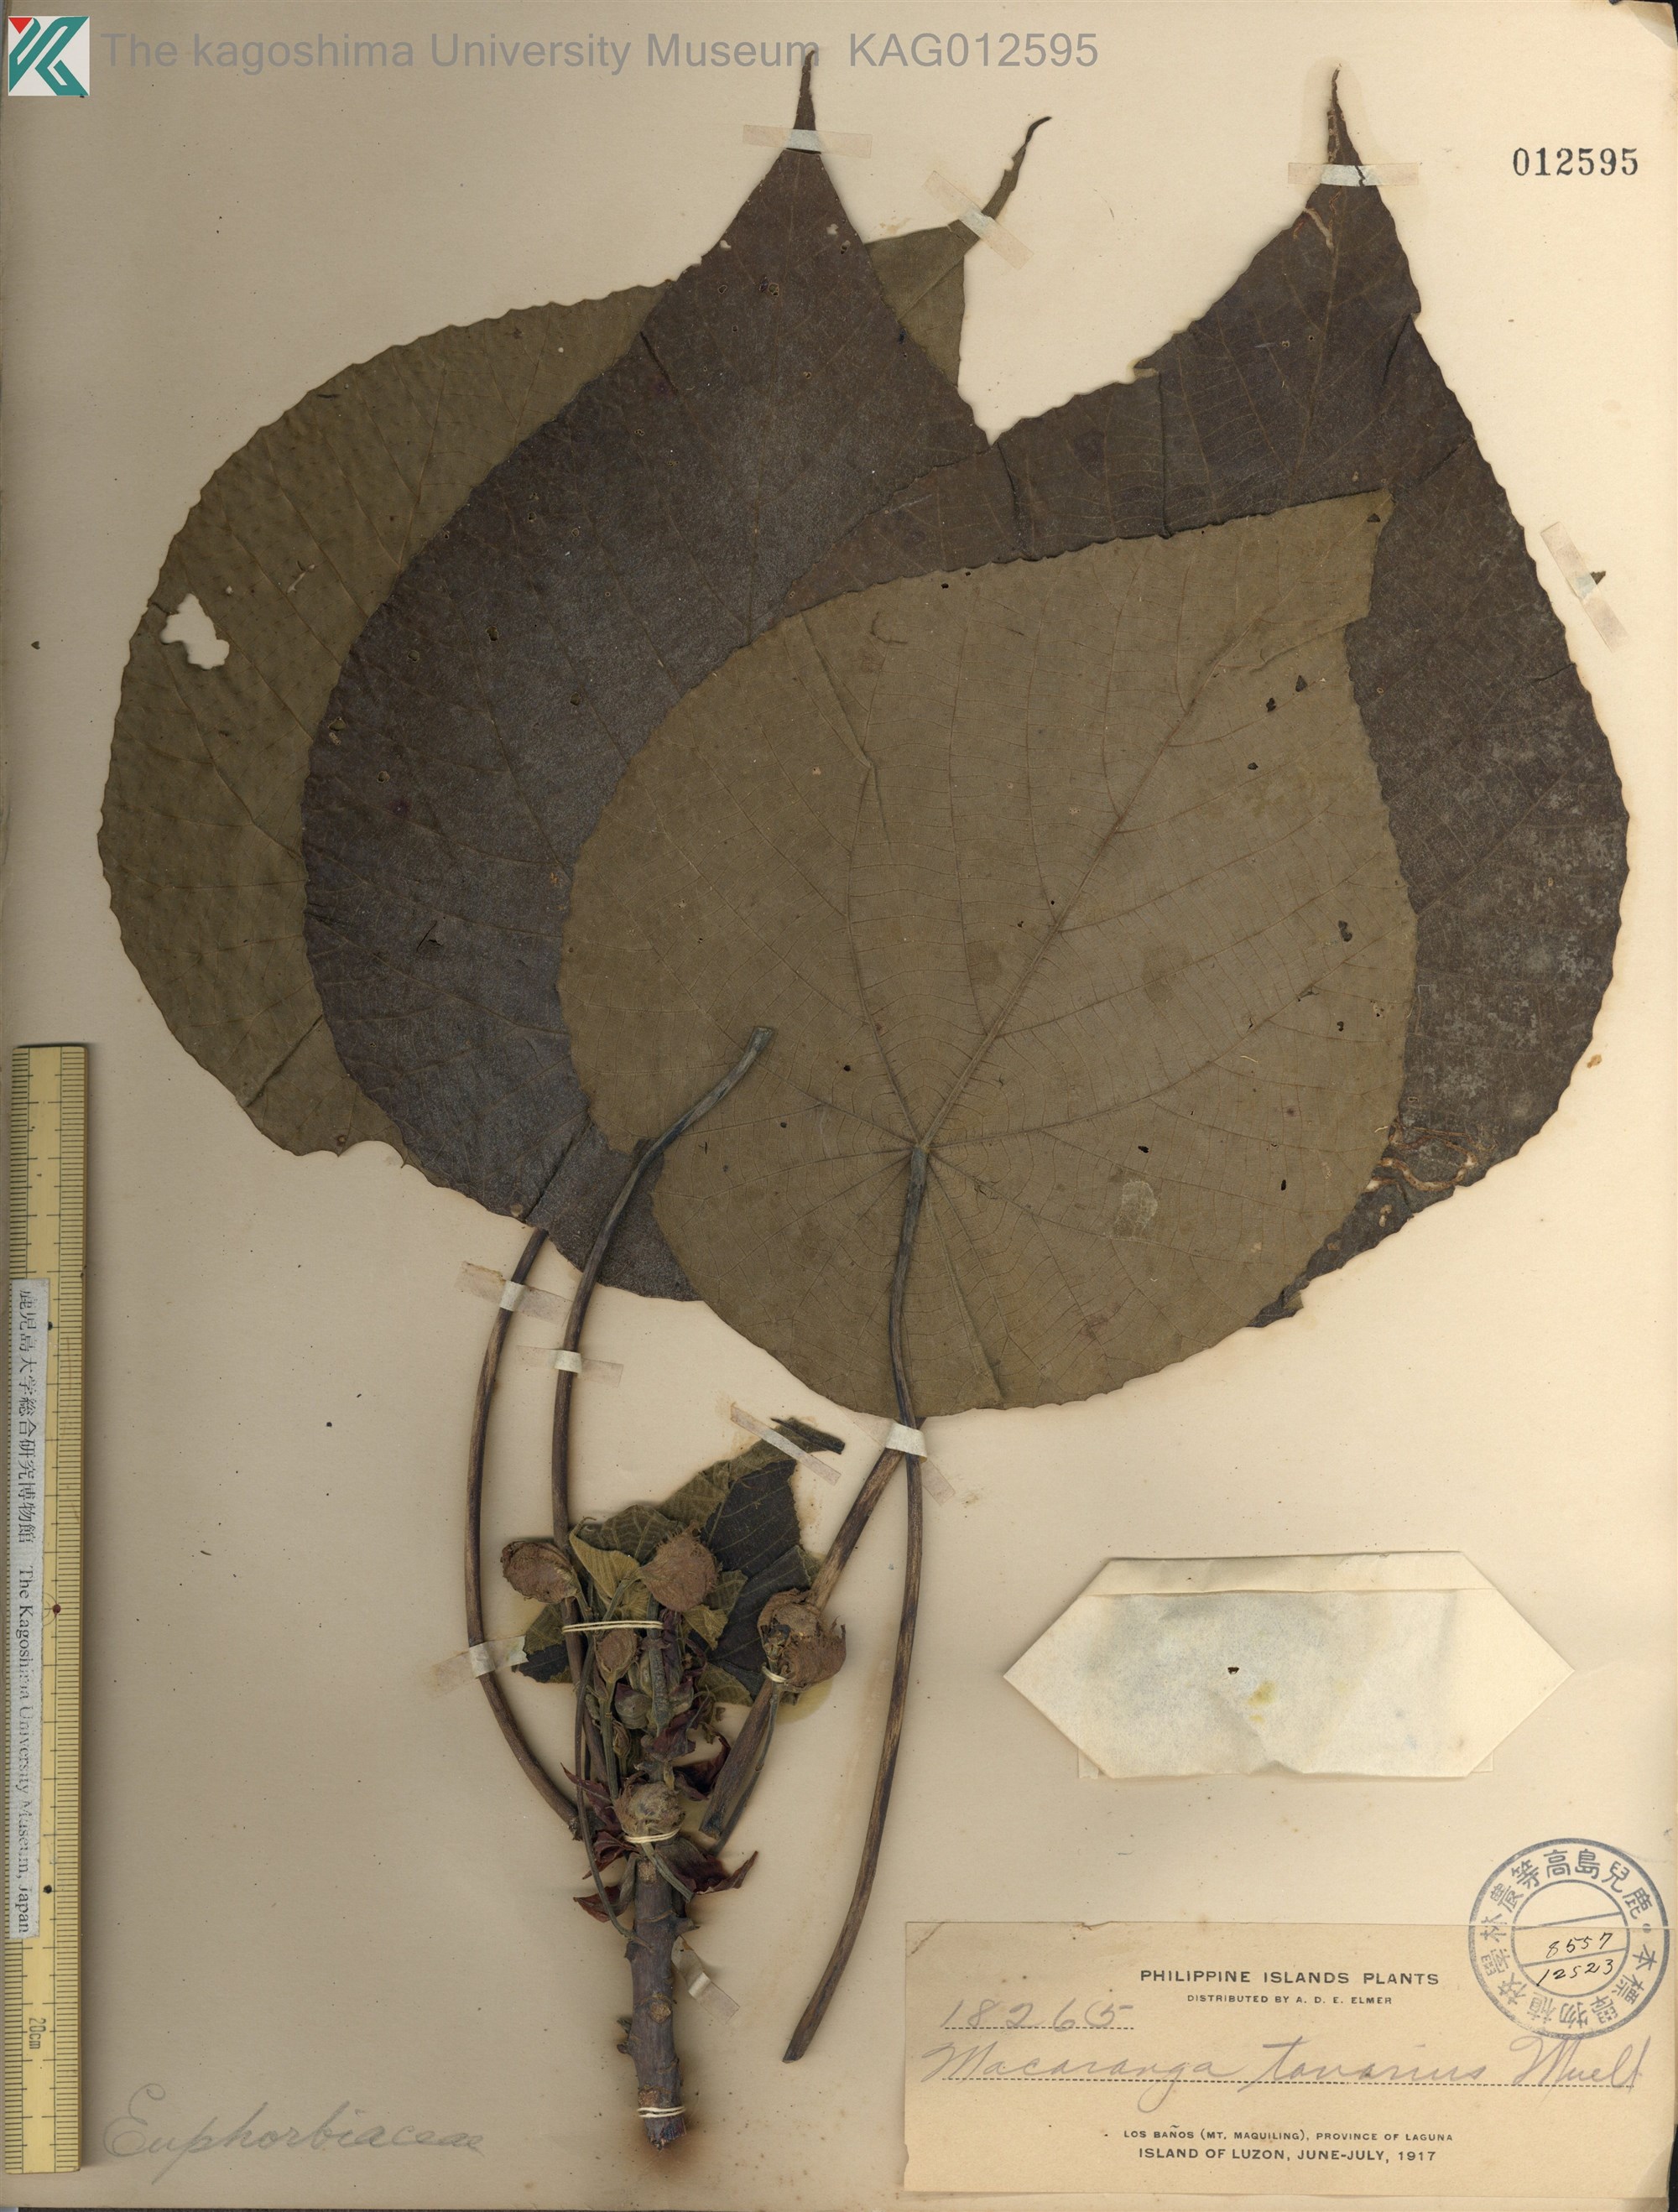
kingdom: Plantae
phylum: Tracheophyta
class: Magnoliopsida
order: Malpighiales
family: Euphorbiaceae
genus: Macaranga
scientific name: Macaranga tanarius
